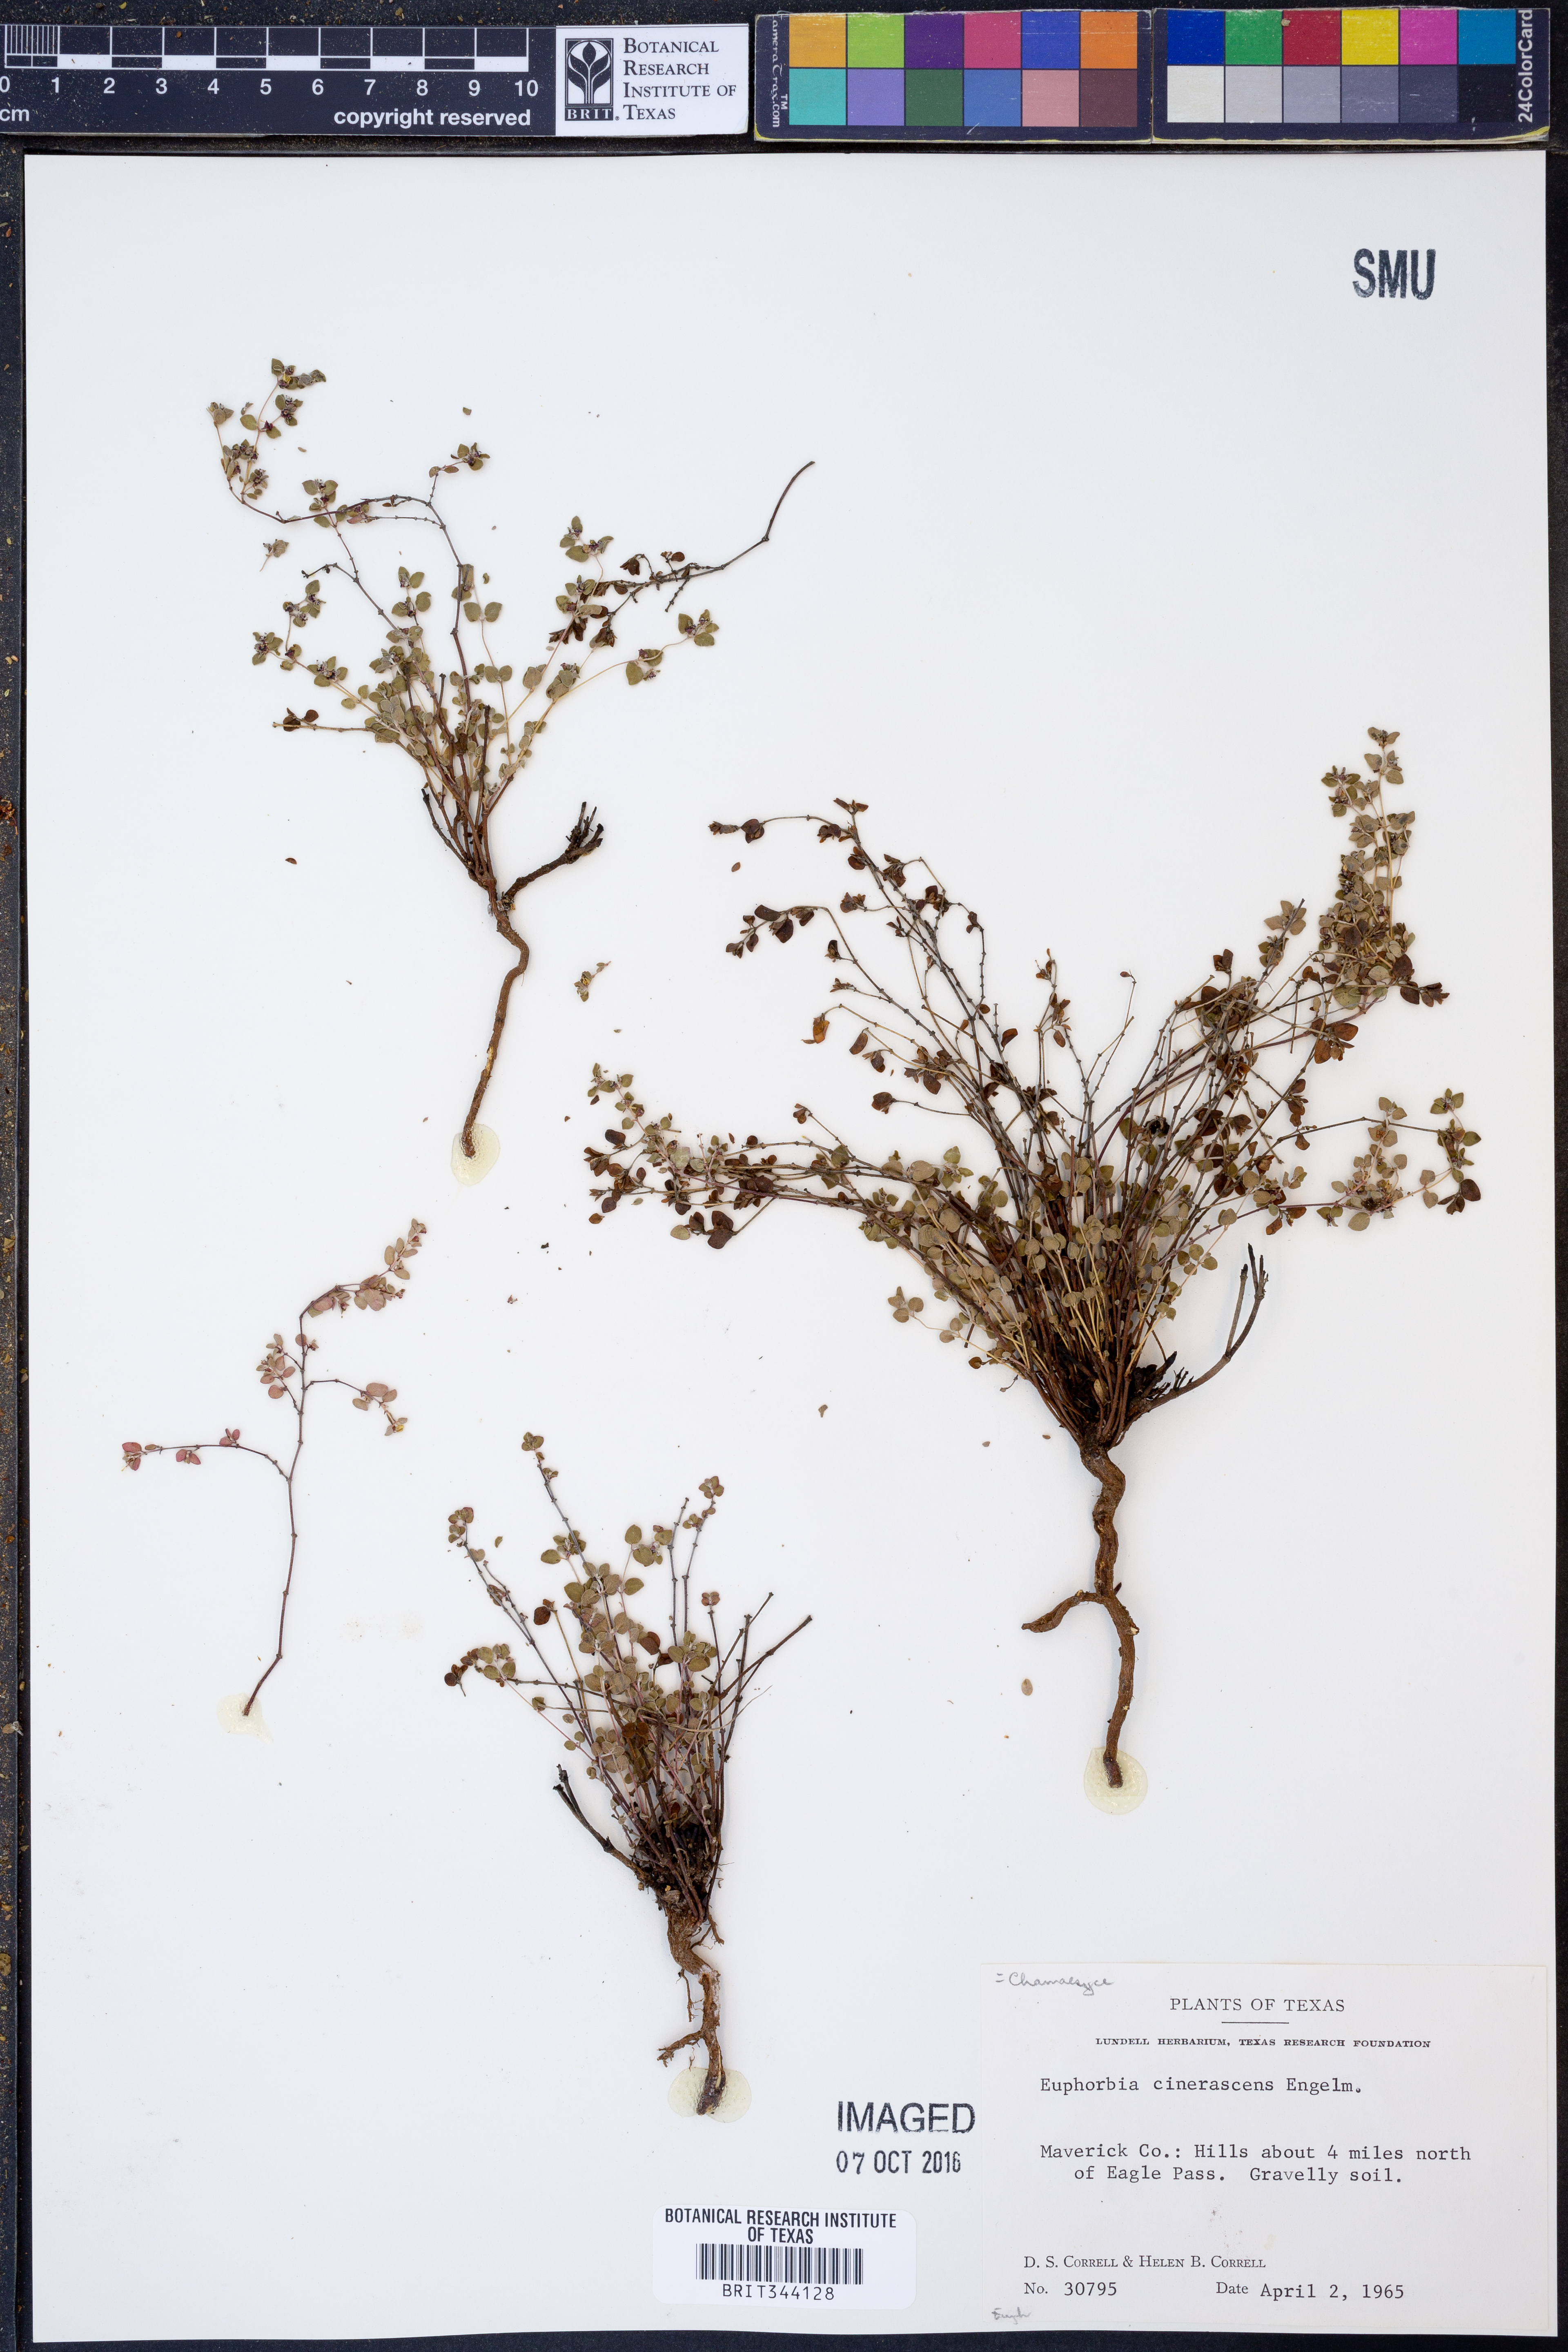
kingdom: Plantae
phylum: Tracheophyta
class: Magnoliopsida
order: Malpighiales
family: Euphorbiaceae
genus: Euphorbia
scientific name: Euphorbia cinerascens
